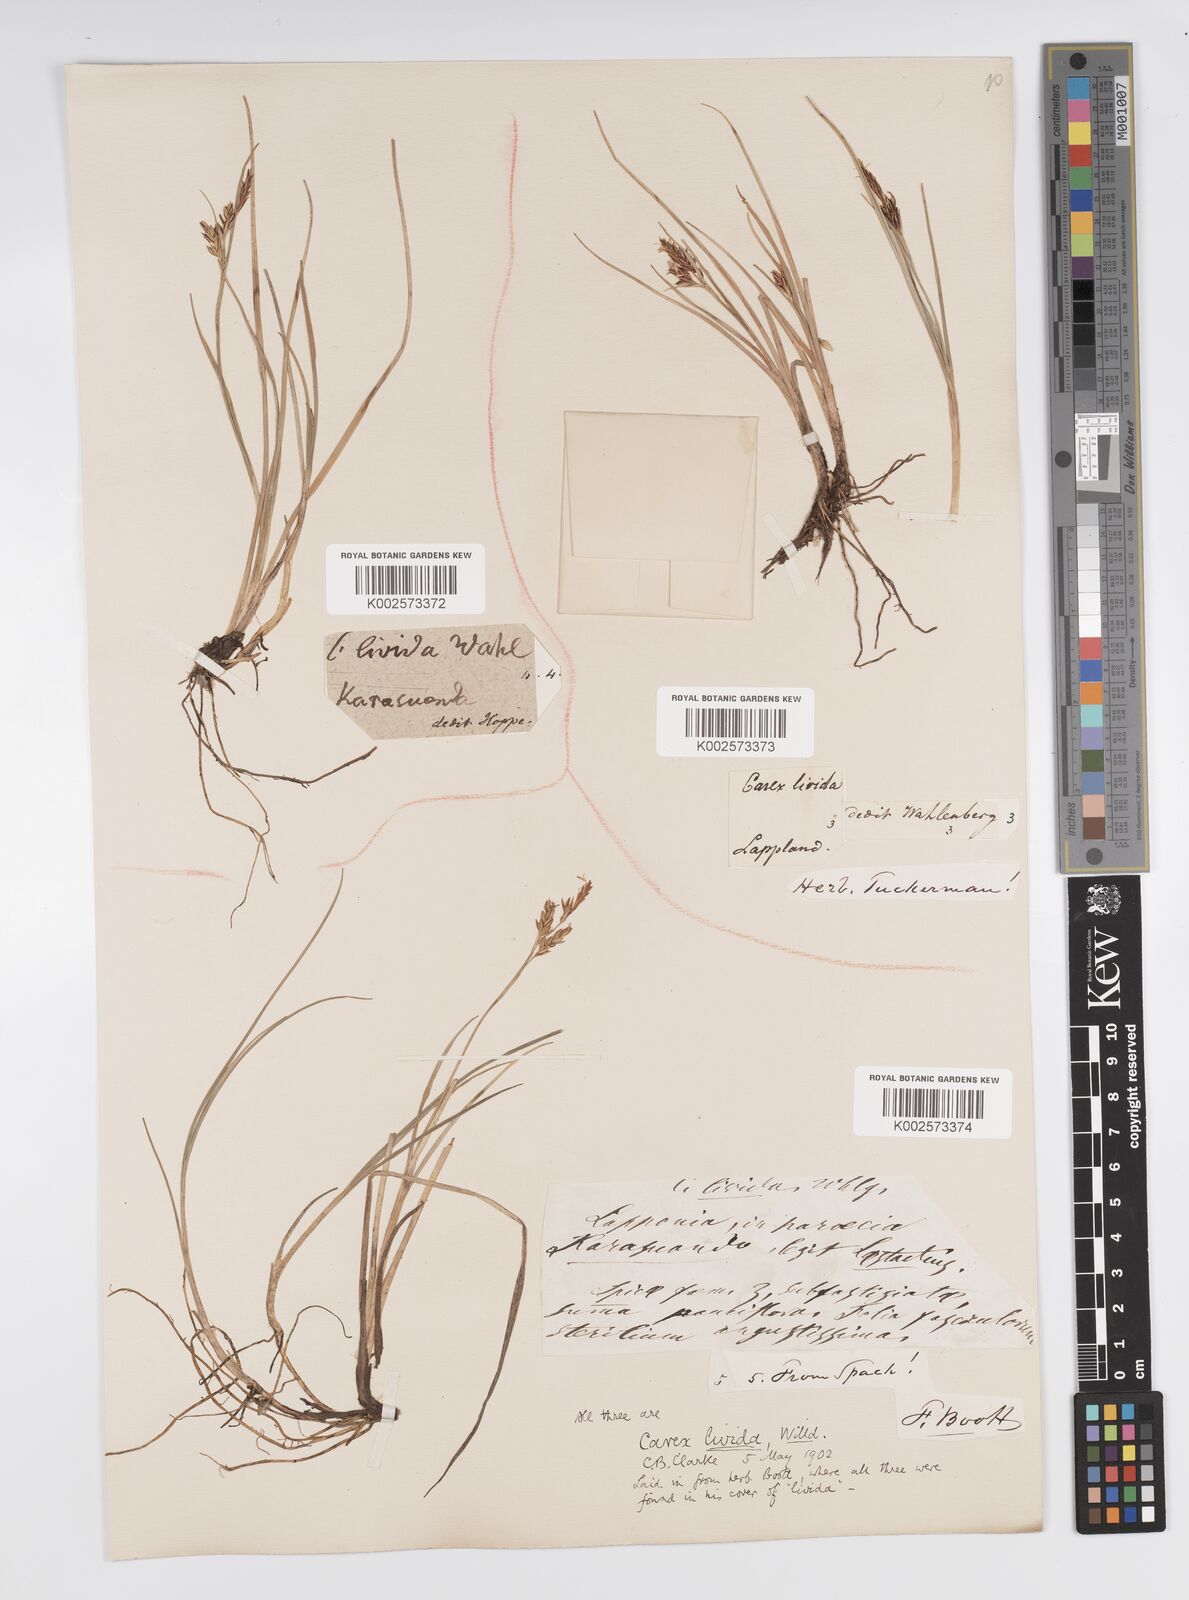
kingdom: Plantae
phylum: Tracheophyta
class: Liliopsida
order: Poales
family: Cyperaceae
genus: Carex
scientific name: Carex livida
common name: Livid sedge
